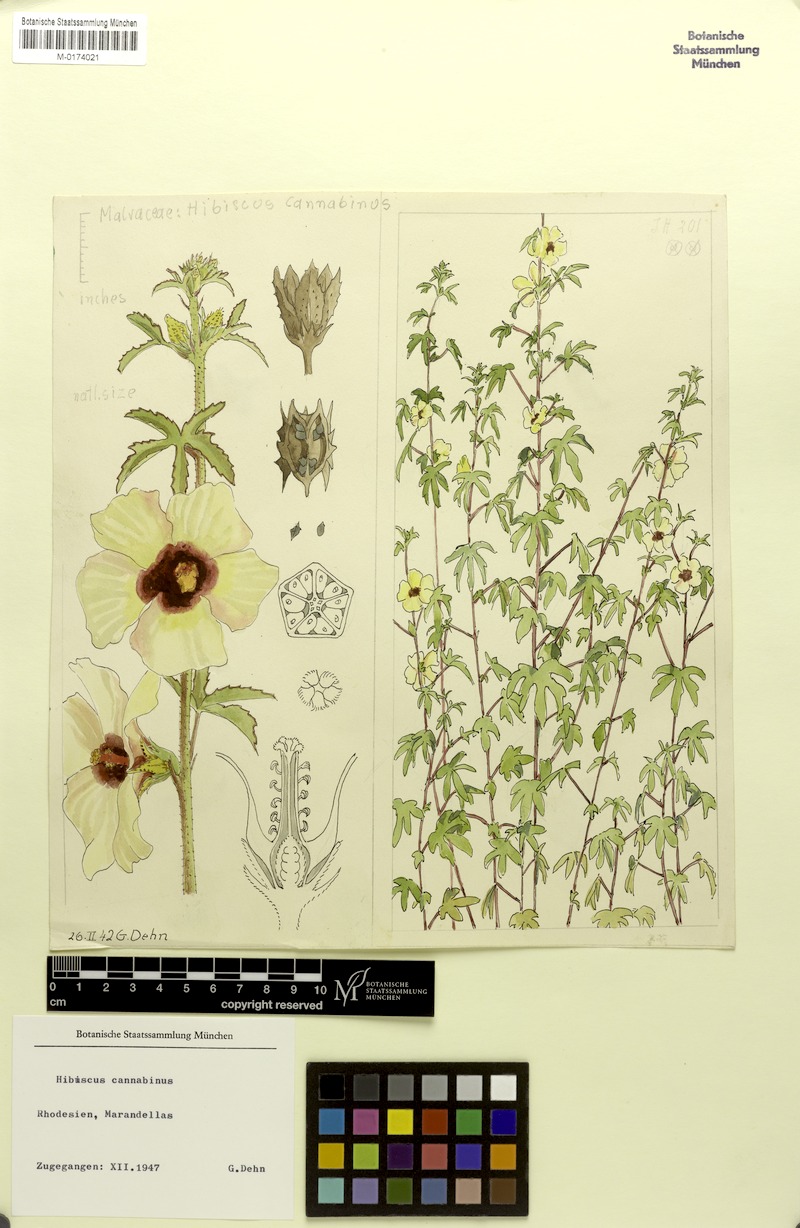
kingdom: Plantae
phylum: Tracheophyta
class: Magnoliopsida
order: Malvales
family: Malvaceae
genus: Hibiscus
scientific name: Hibiscus cannabinus
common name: Brown indianhemp
